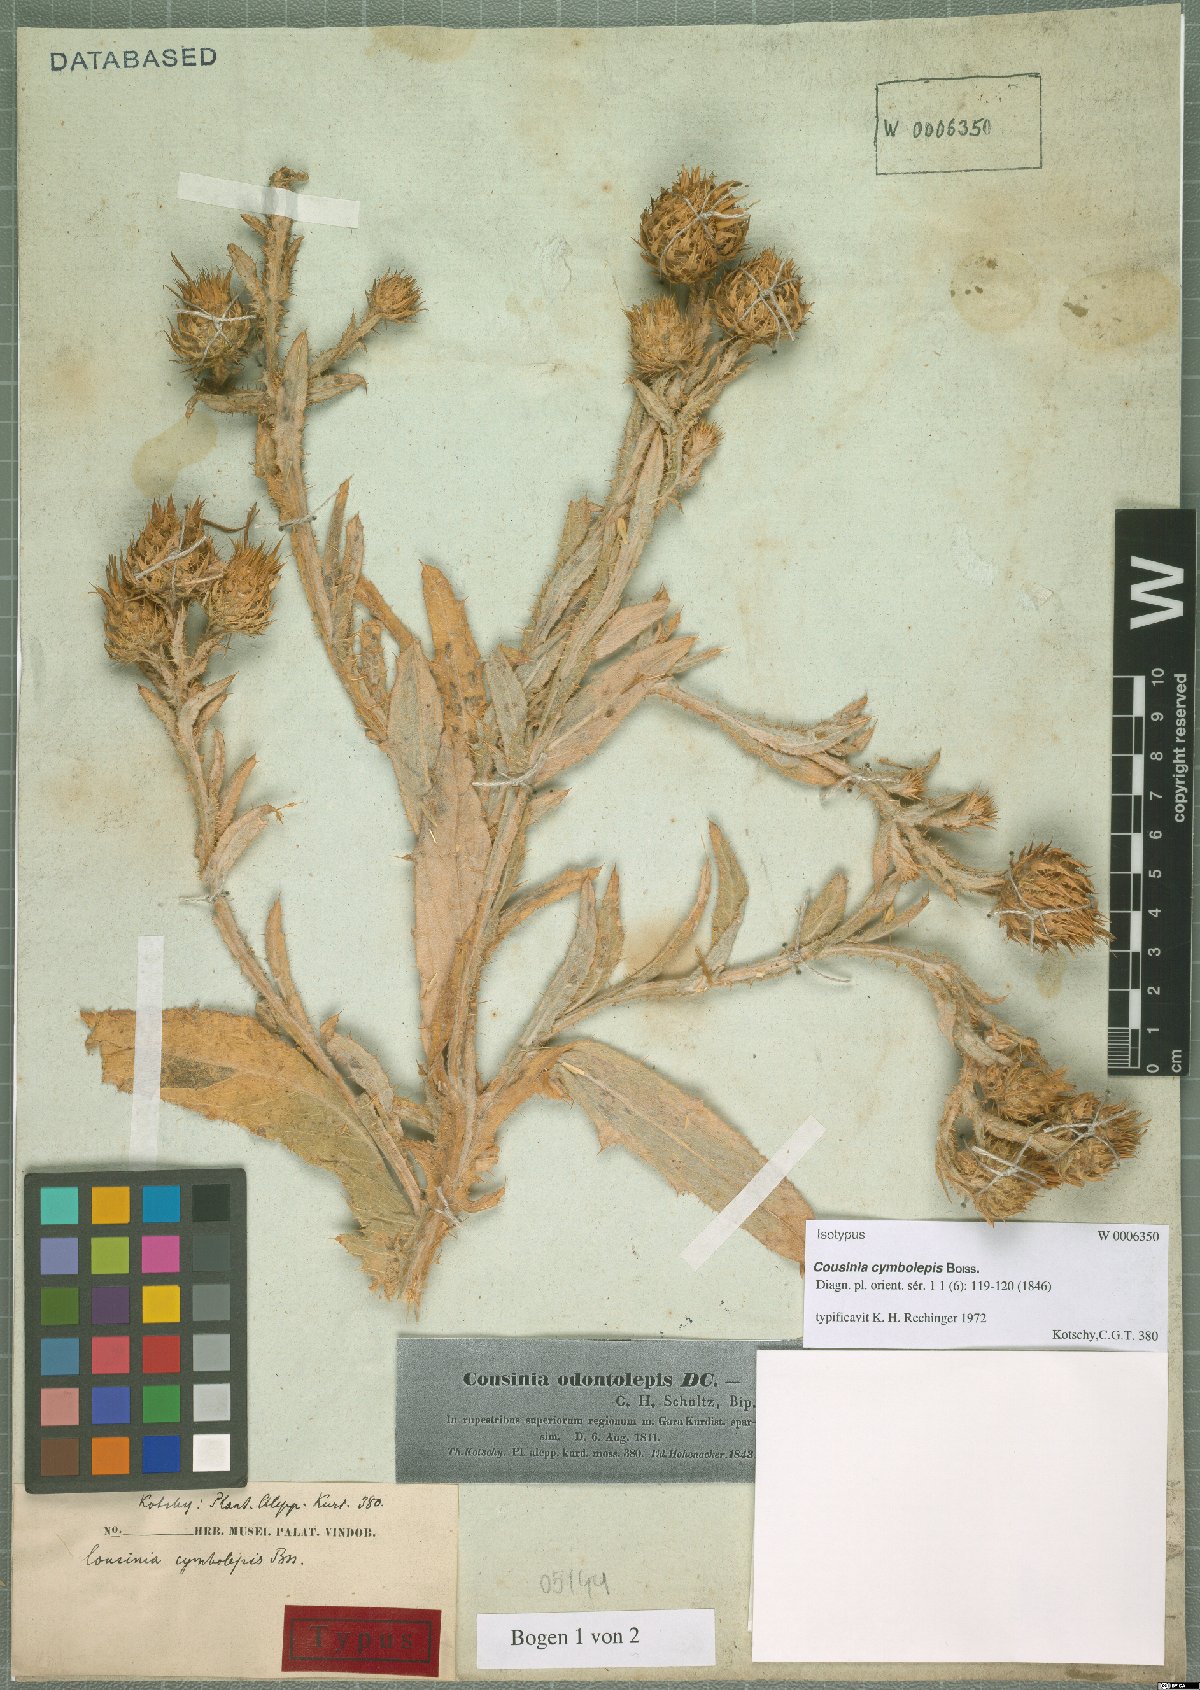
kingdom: Plantae
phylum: Tracheophyta
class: Magnoliopsida
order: Asterales
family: Asteraceae
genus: Cousinia
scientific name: Cousinia odontolepis
